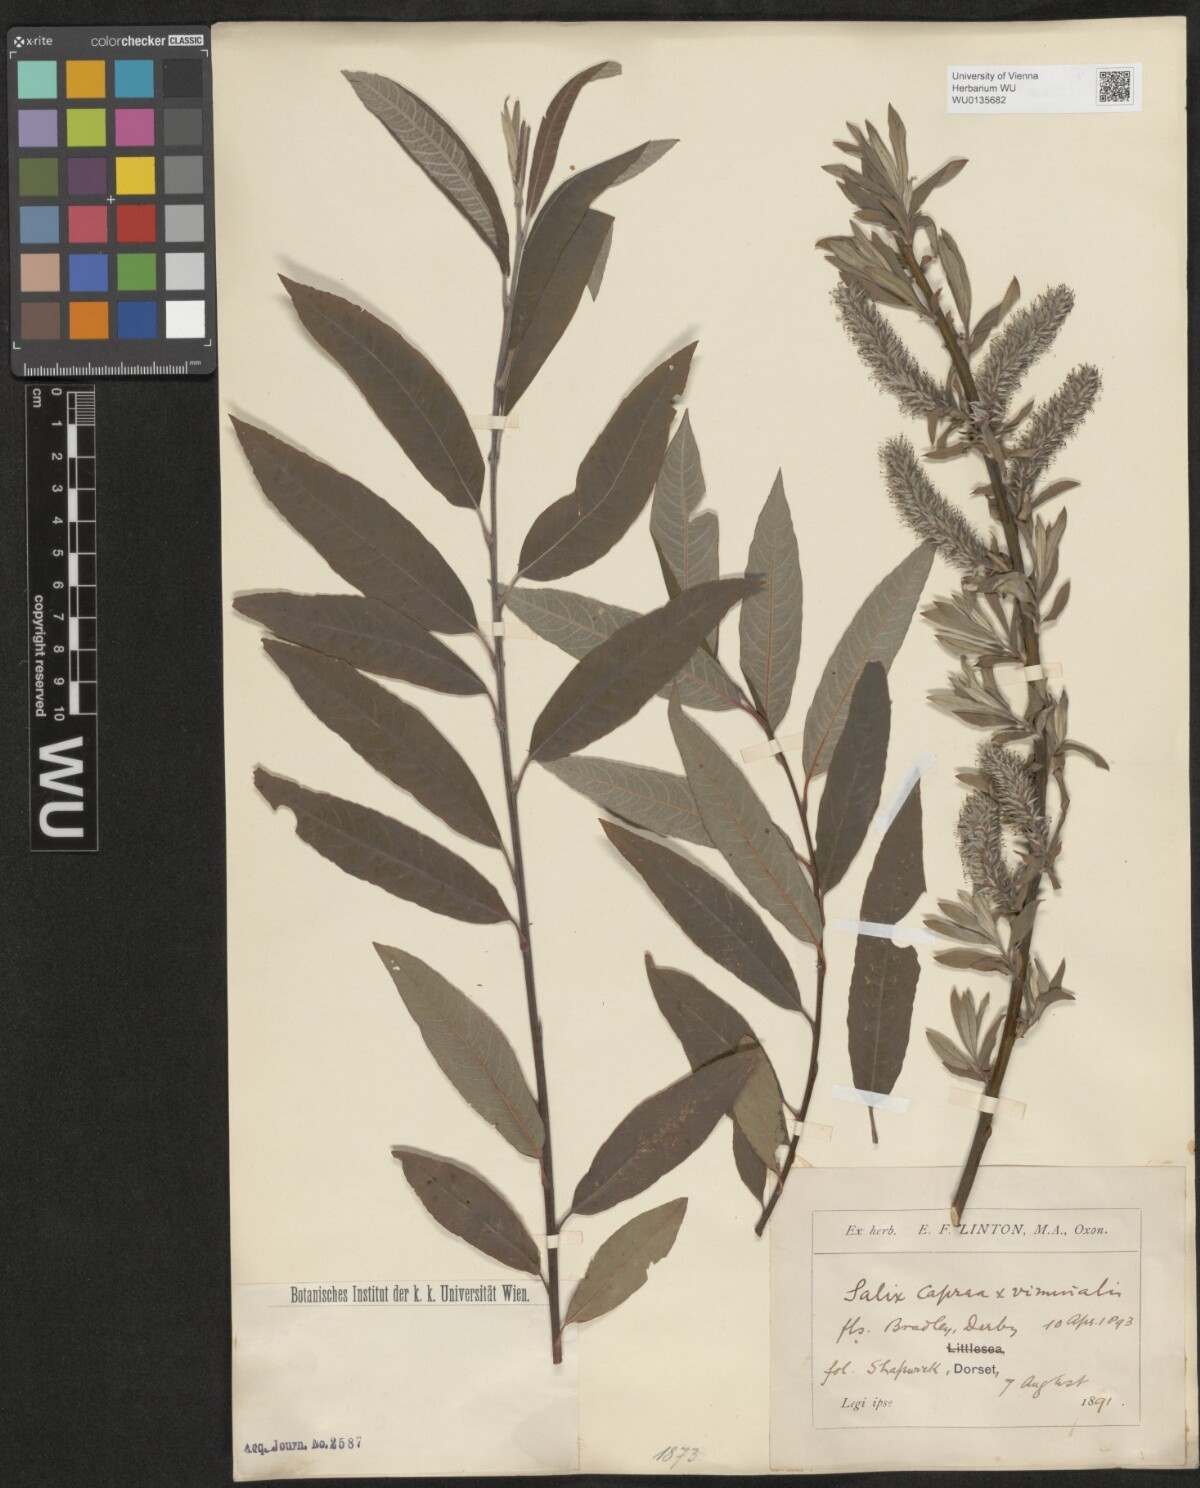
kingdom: Plantae
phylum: Tracheophyta
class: Magnoliopsida
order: Malpighiales
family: Salicaceae
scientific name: Salicaceae
